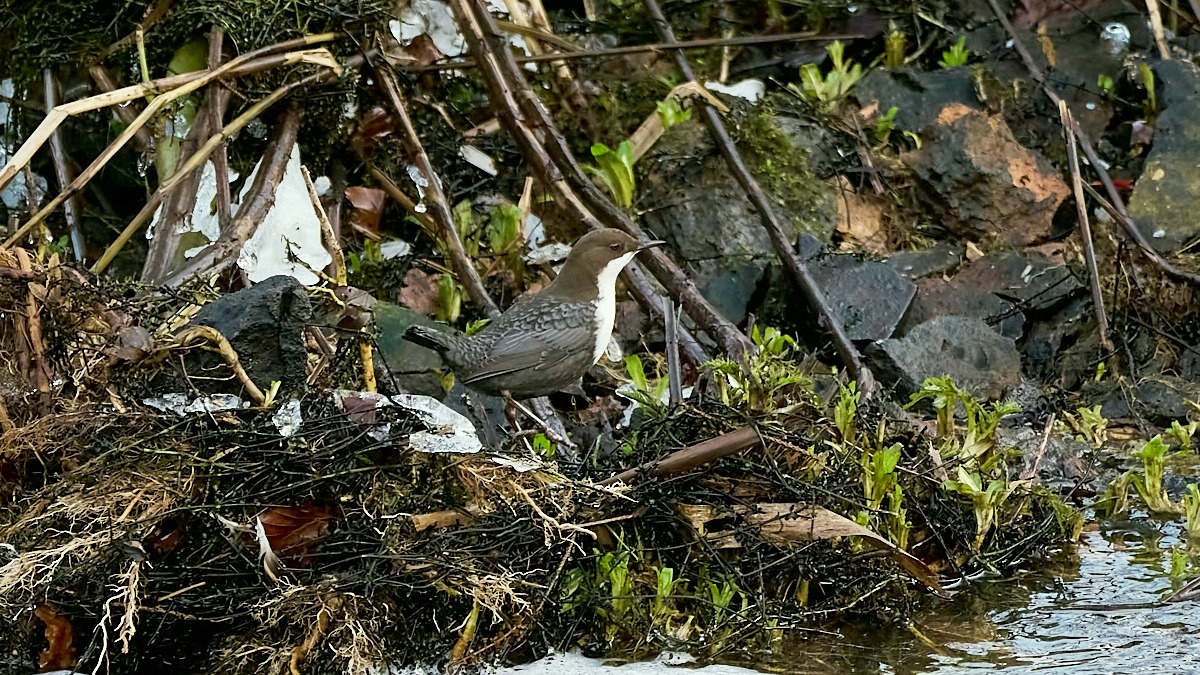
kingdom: Animalia
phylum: Chordata
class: Aves
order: Passeriformes
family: Cinclidae
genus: Cinclus
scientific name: Cinclus cinclus
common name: Vandstær
